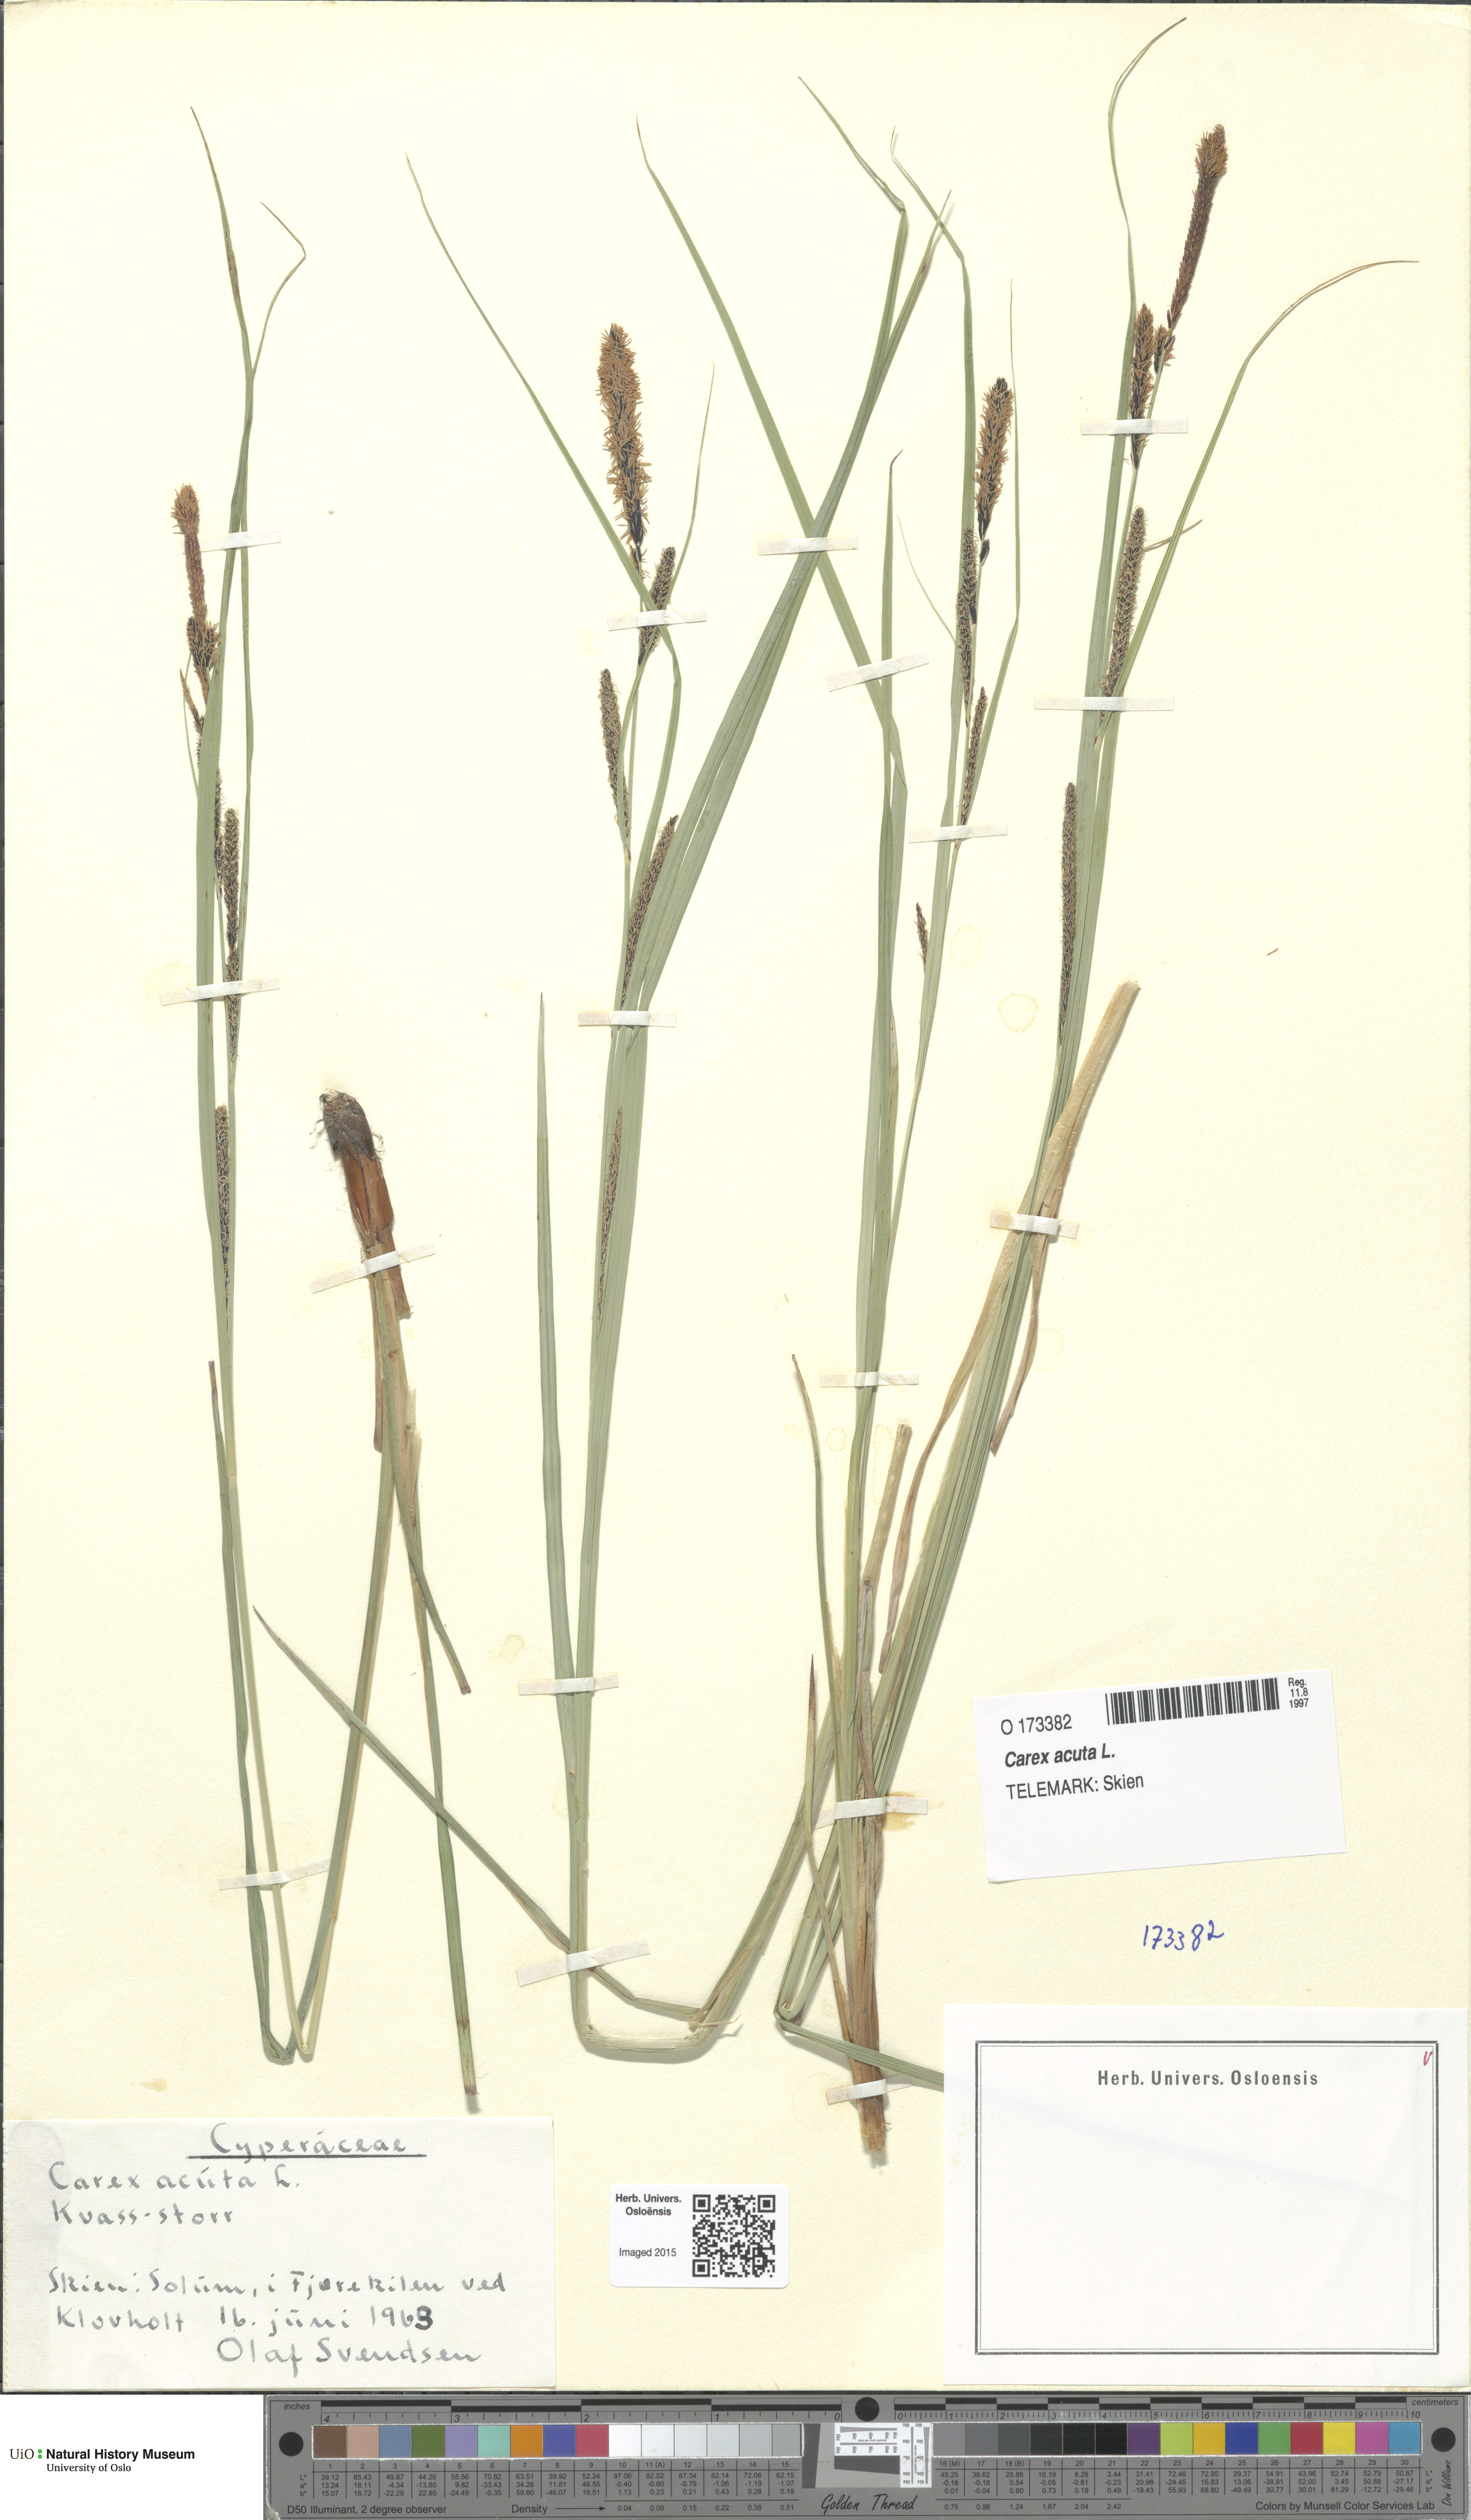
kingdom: Plantae
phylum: Tracheophyta
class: Liliopsida
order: Poales
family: Cyperaceae
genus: Carex
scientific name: Carex acuta
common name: Slender tufted-sedge
